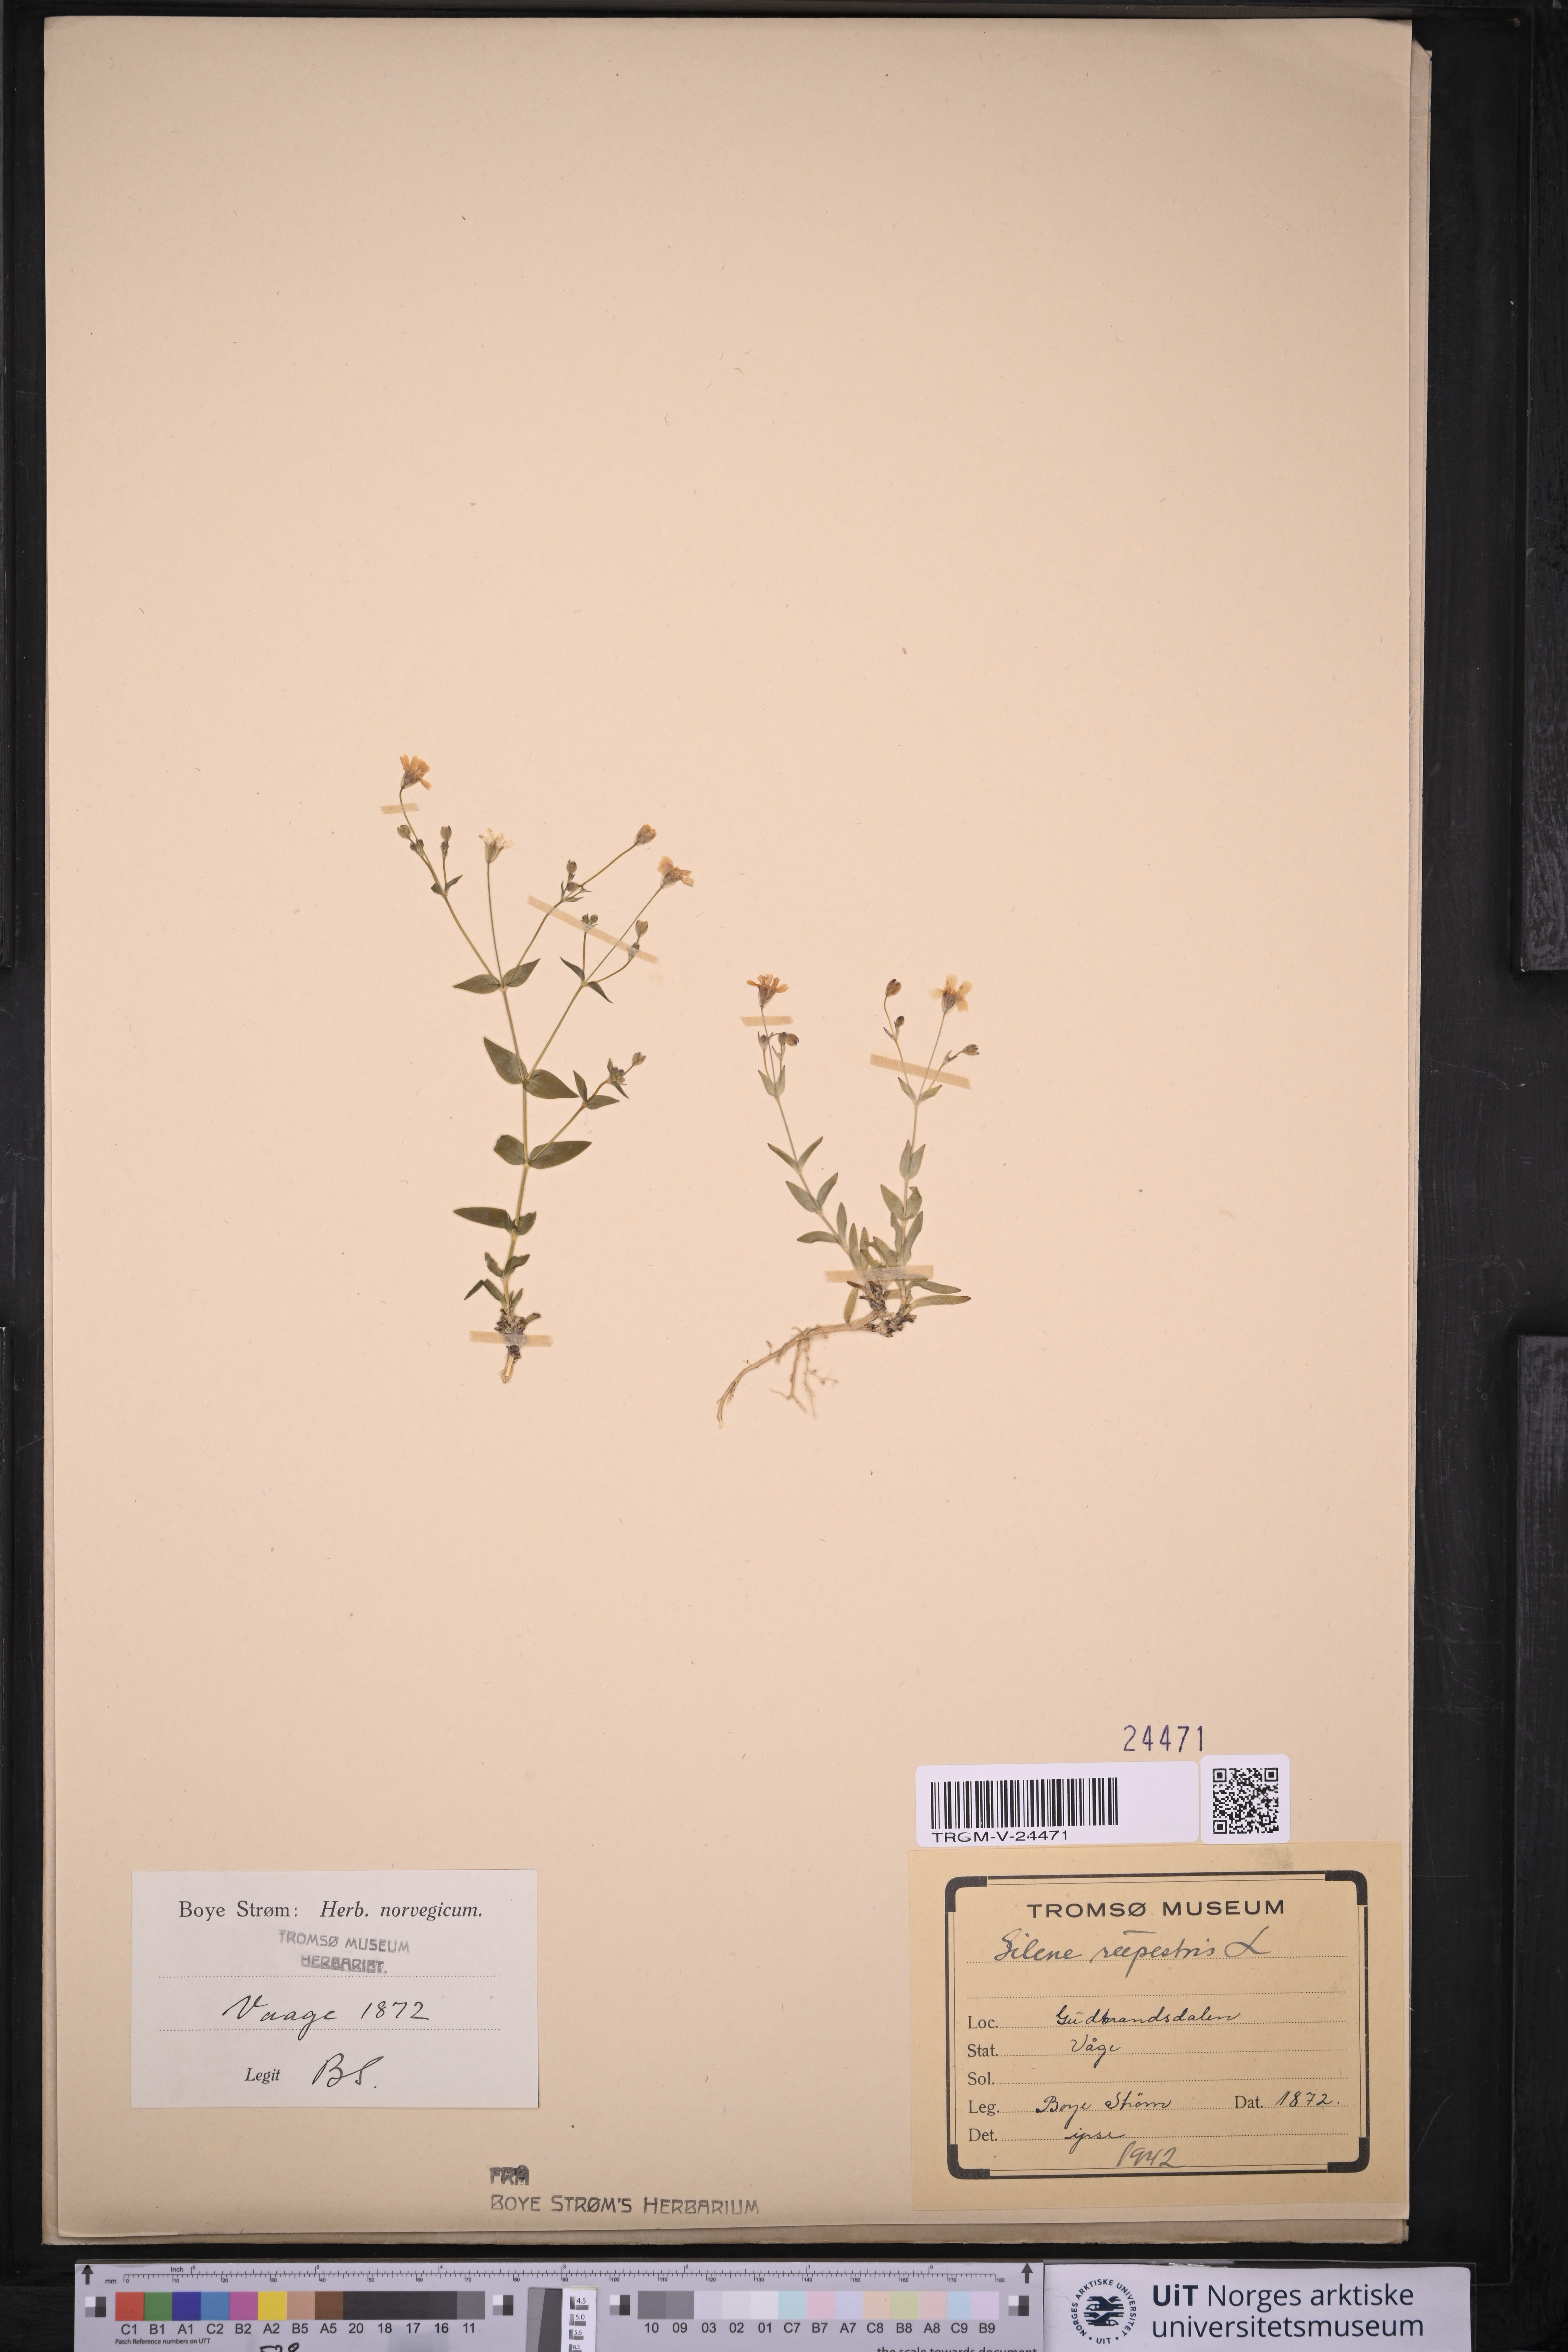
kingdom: Plantae
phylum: Tracheophyta
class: Magnoliopsida
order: Caryophyllales
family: Caryophyllaceae
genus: Atocion
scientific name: Atocion rupestre
